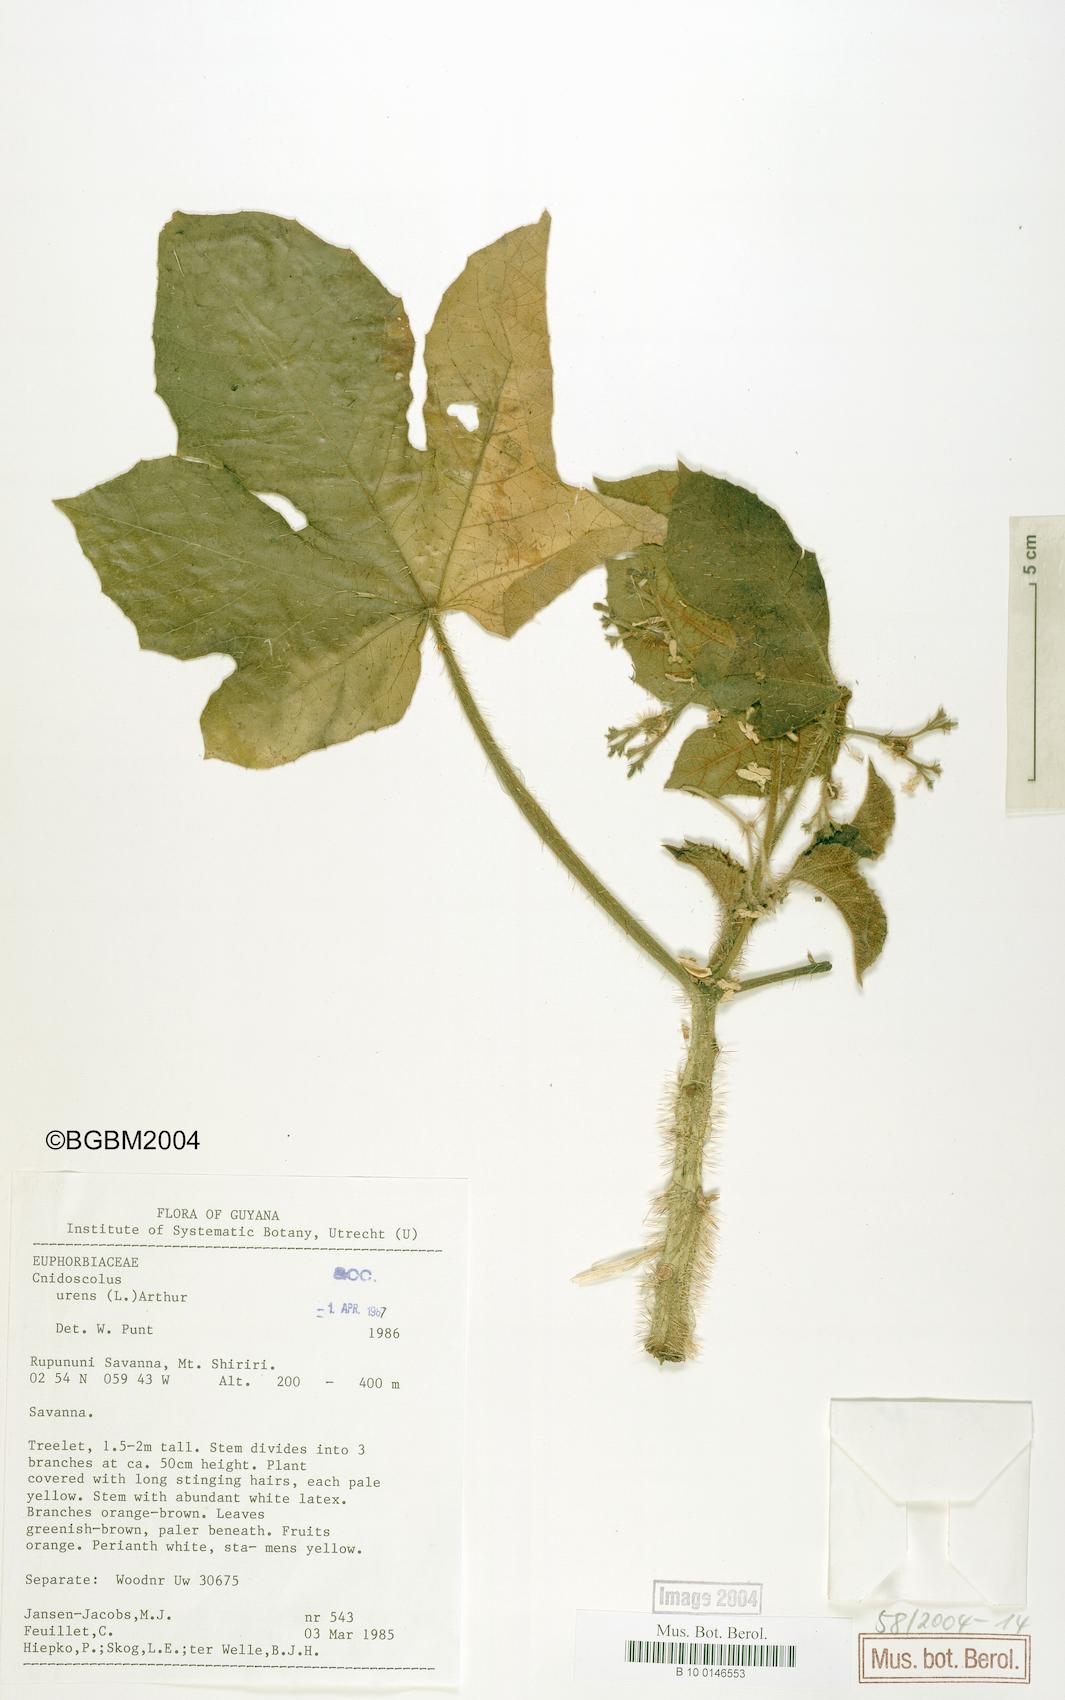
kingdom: Plantae
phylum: Tracheophyta
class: Magnoliopsida
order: Malpighiales
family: Euphorbiaceae
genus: Cnidoscolus
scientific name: Cnidoscolus urens
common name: Bull-nettle
